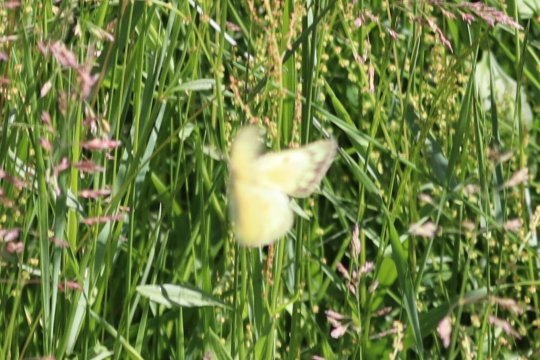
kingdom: Animalia
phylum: Arthropoda
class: Insecta
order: Lepidoptera
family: Pieridae
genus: Colias
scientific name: Colias philodice
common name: Clouded Sulphur
